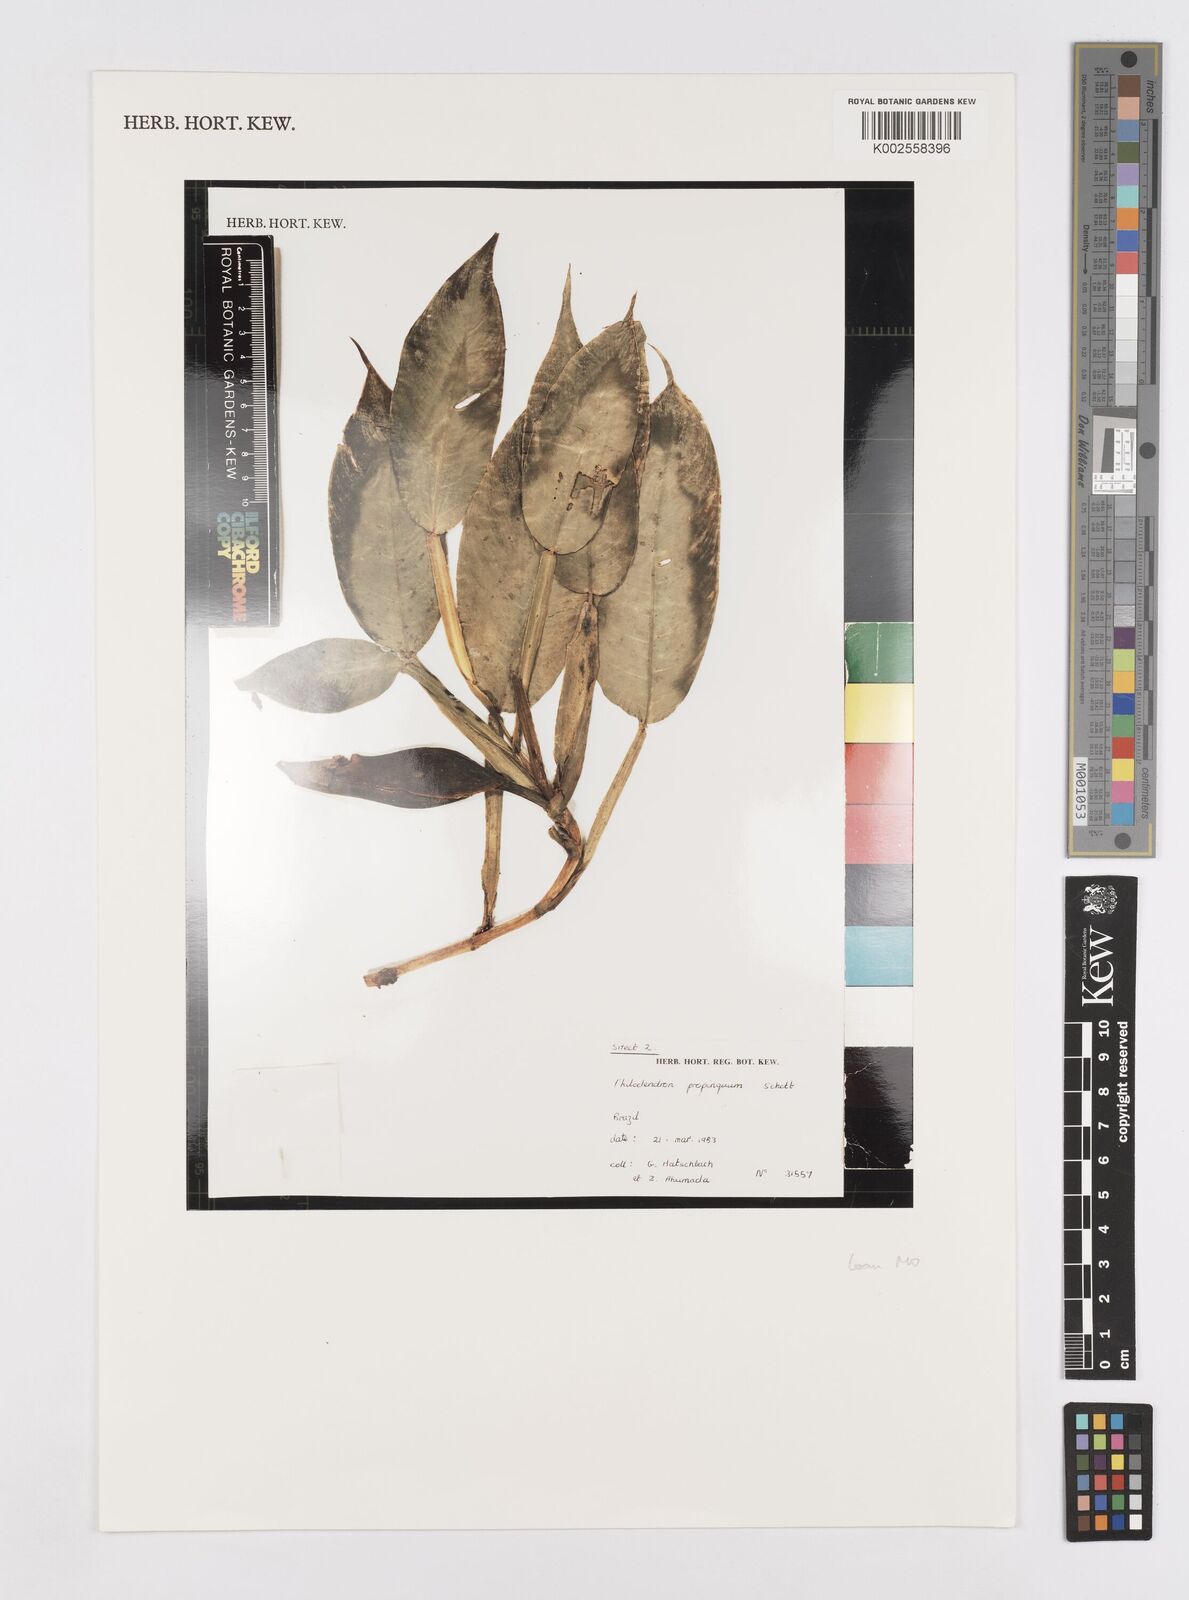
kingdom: Plantae
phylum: Tracheophyta
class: Liliopsida
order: Alismatales
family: Araceae
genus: Philodendron
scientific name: Philodendron propinquum
